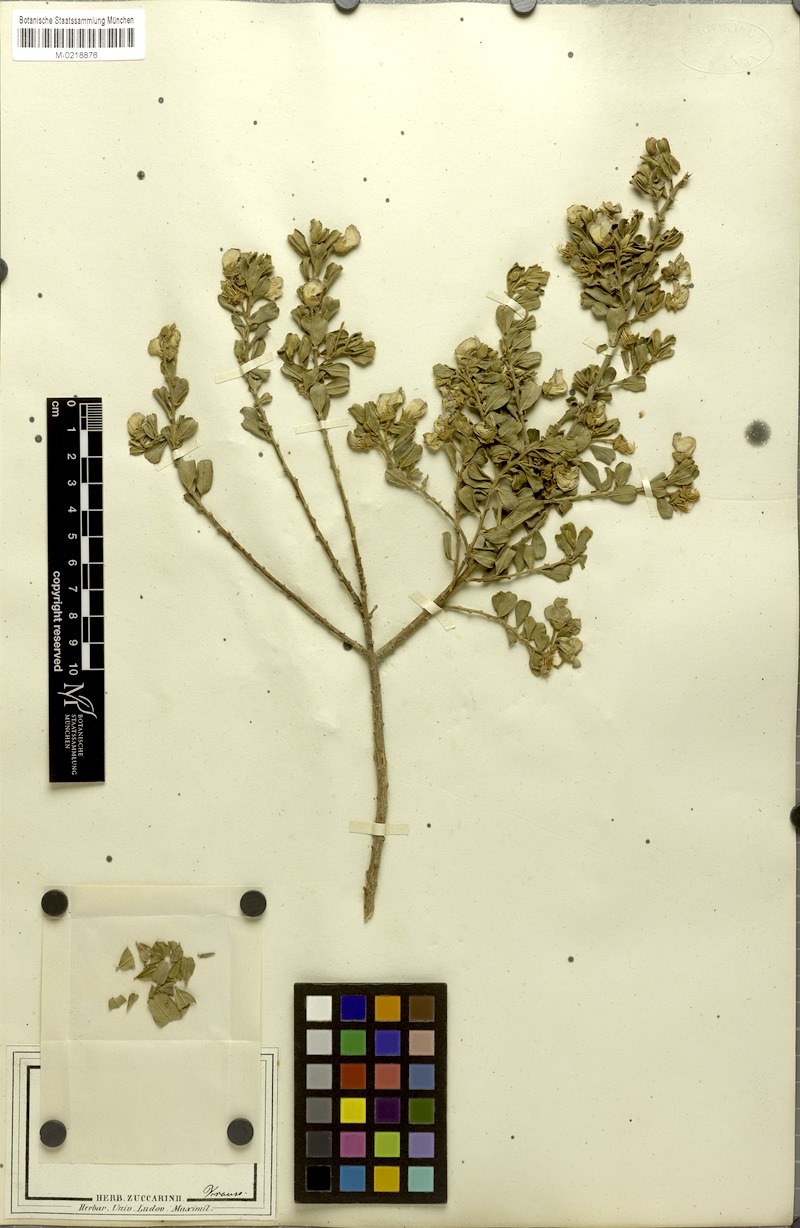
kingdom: Plantae
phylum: Tracheophyta
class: Magnoliopsida
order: Fabales
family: Fabaceae
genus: Podalyria
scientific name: Podalyria myrtillifolia
